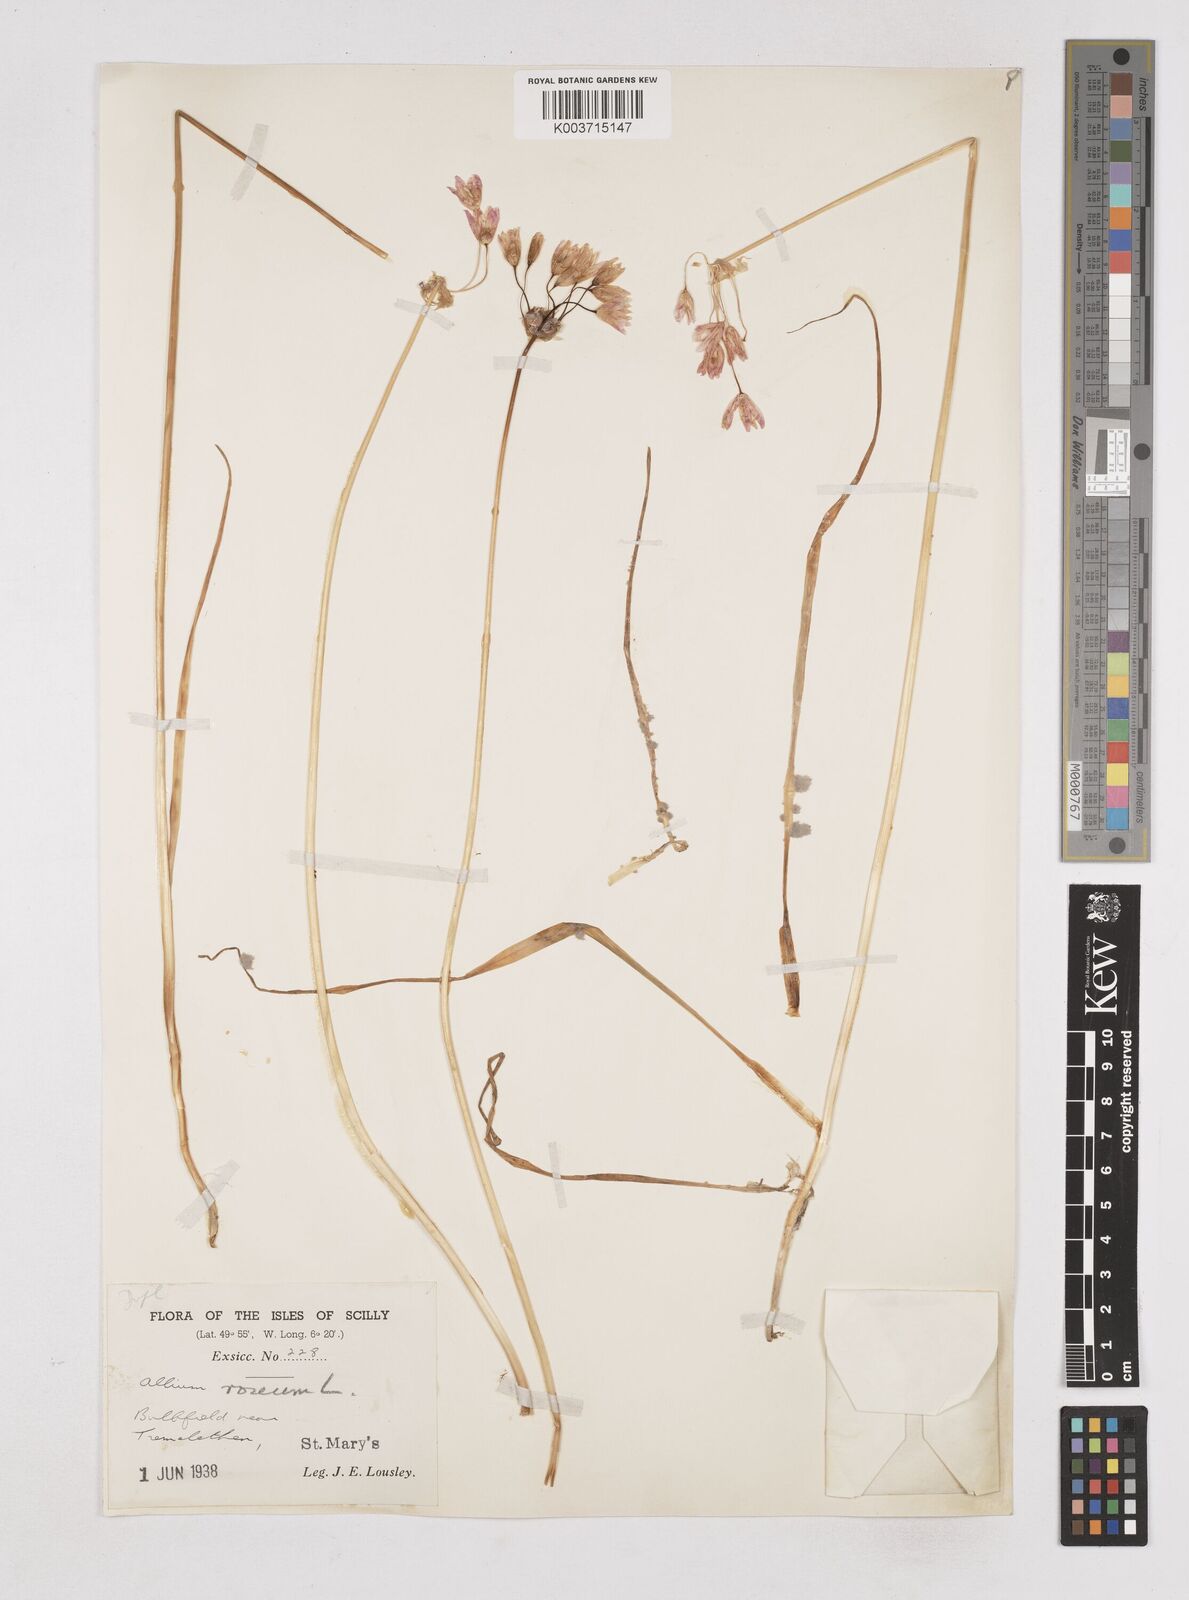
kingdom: Plantae
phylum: Tracheophyta
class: Liliopsida
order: Asparagales
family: Amaryllidaceae
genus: Allium
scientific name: Allium roseum
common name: Rosy garlic
